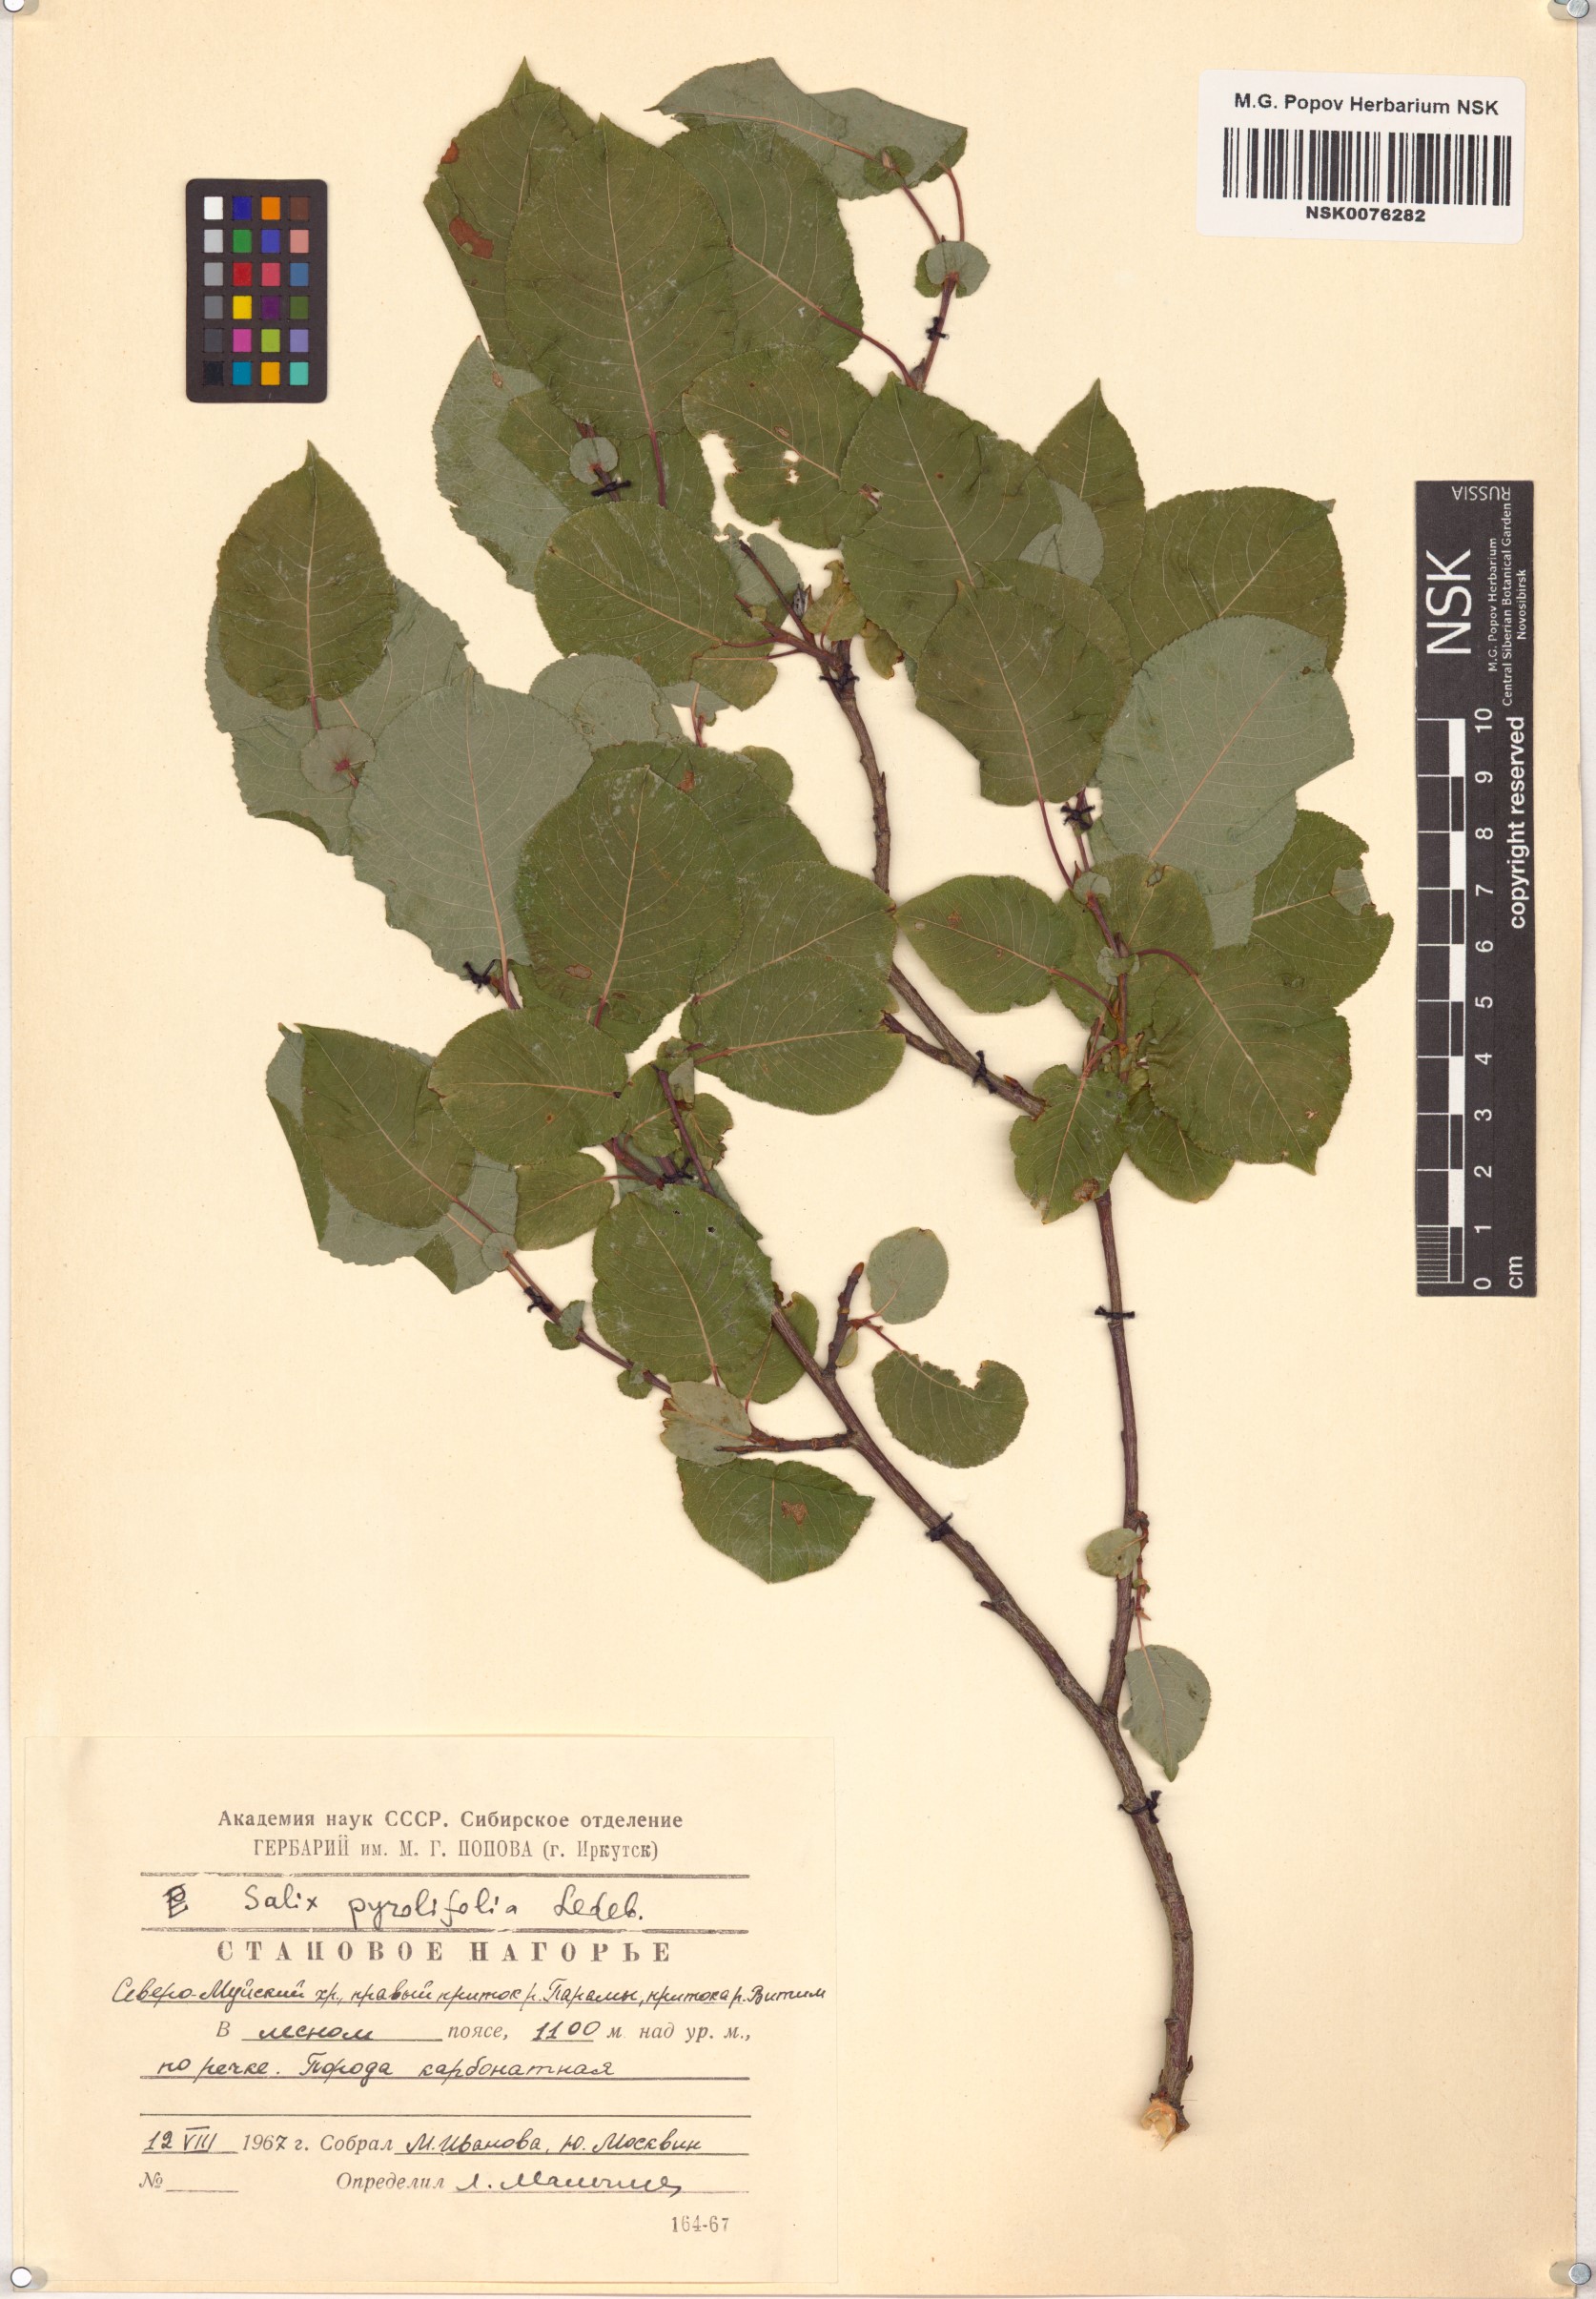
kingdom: Plantae
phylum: Tracheophyta
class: Magnoliopsida
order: Malpighiales
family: Salicaceae
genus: Salix
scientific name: Salix pyrolifolia
